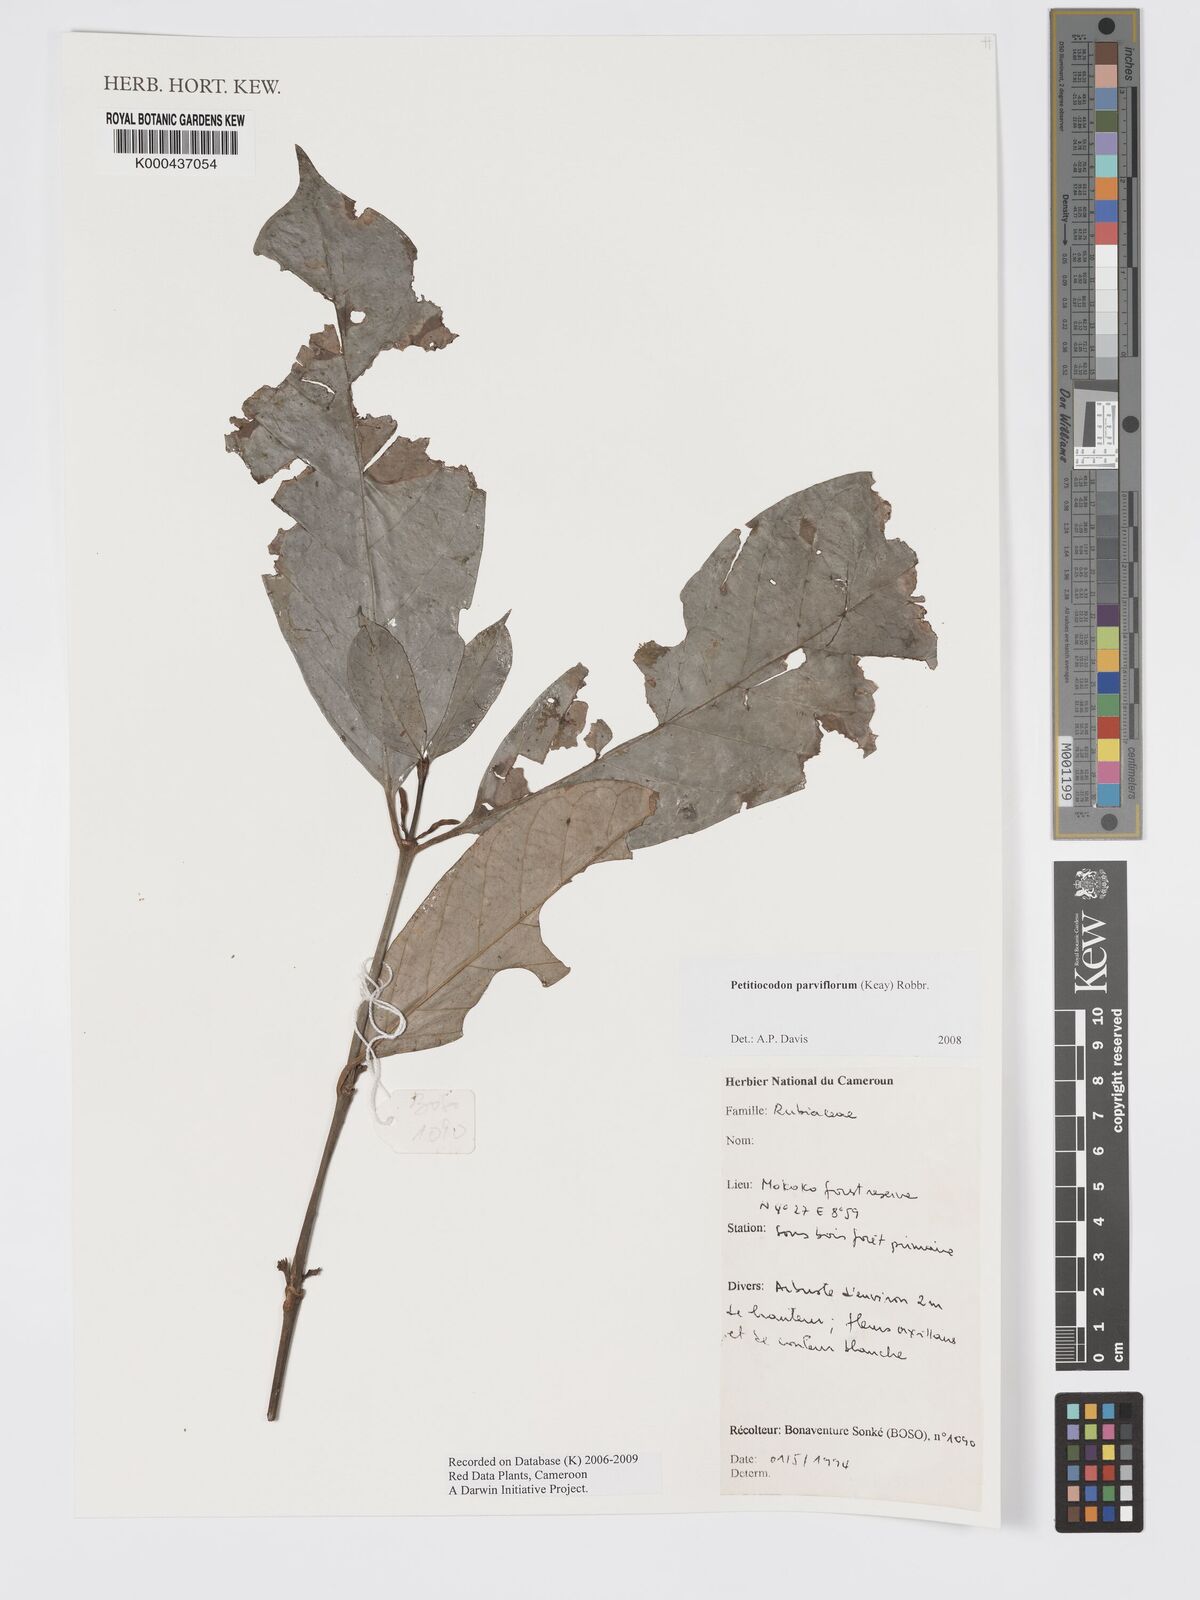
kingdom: Plantae
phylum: Tracheophyta
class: Magnoliopsida
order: Gentianales
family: Rubiaceae
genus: Petitiocodon
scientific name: Petitiocodon parviflorum
